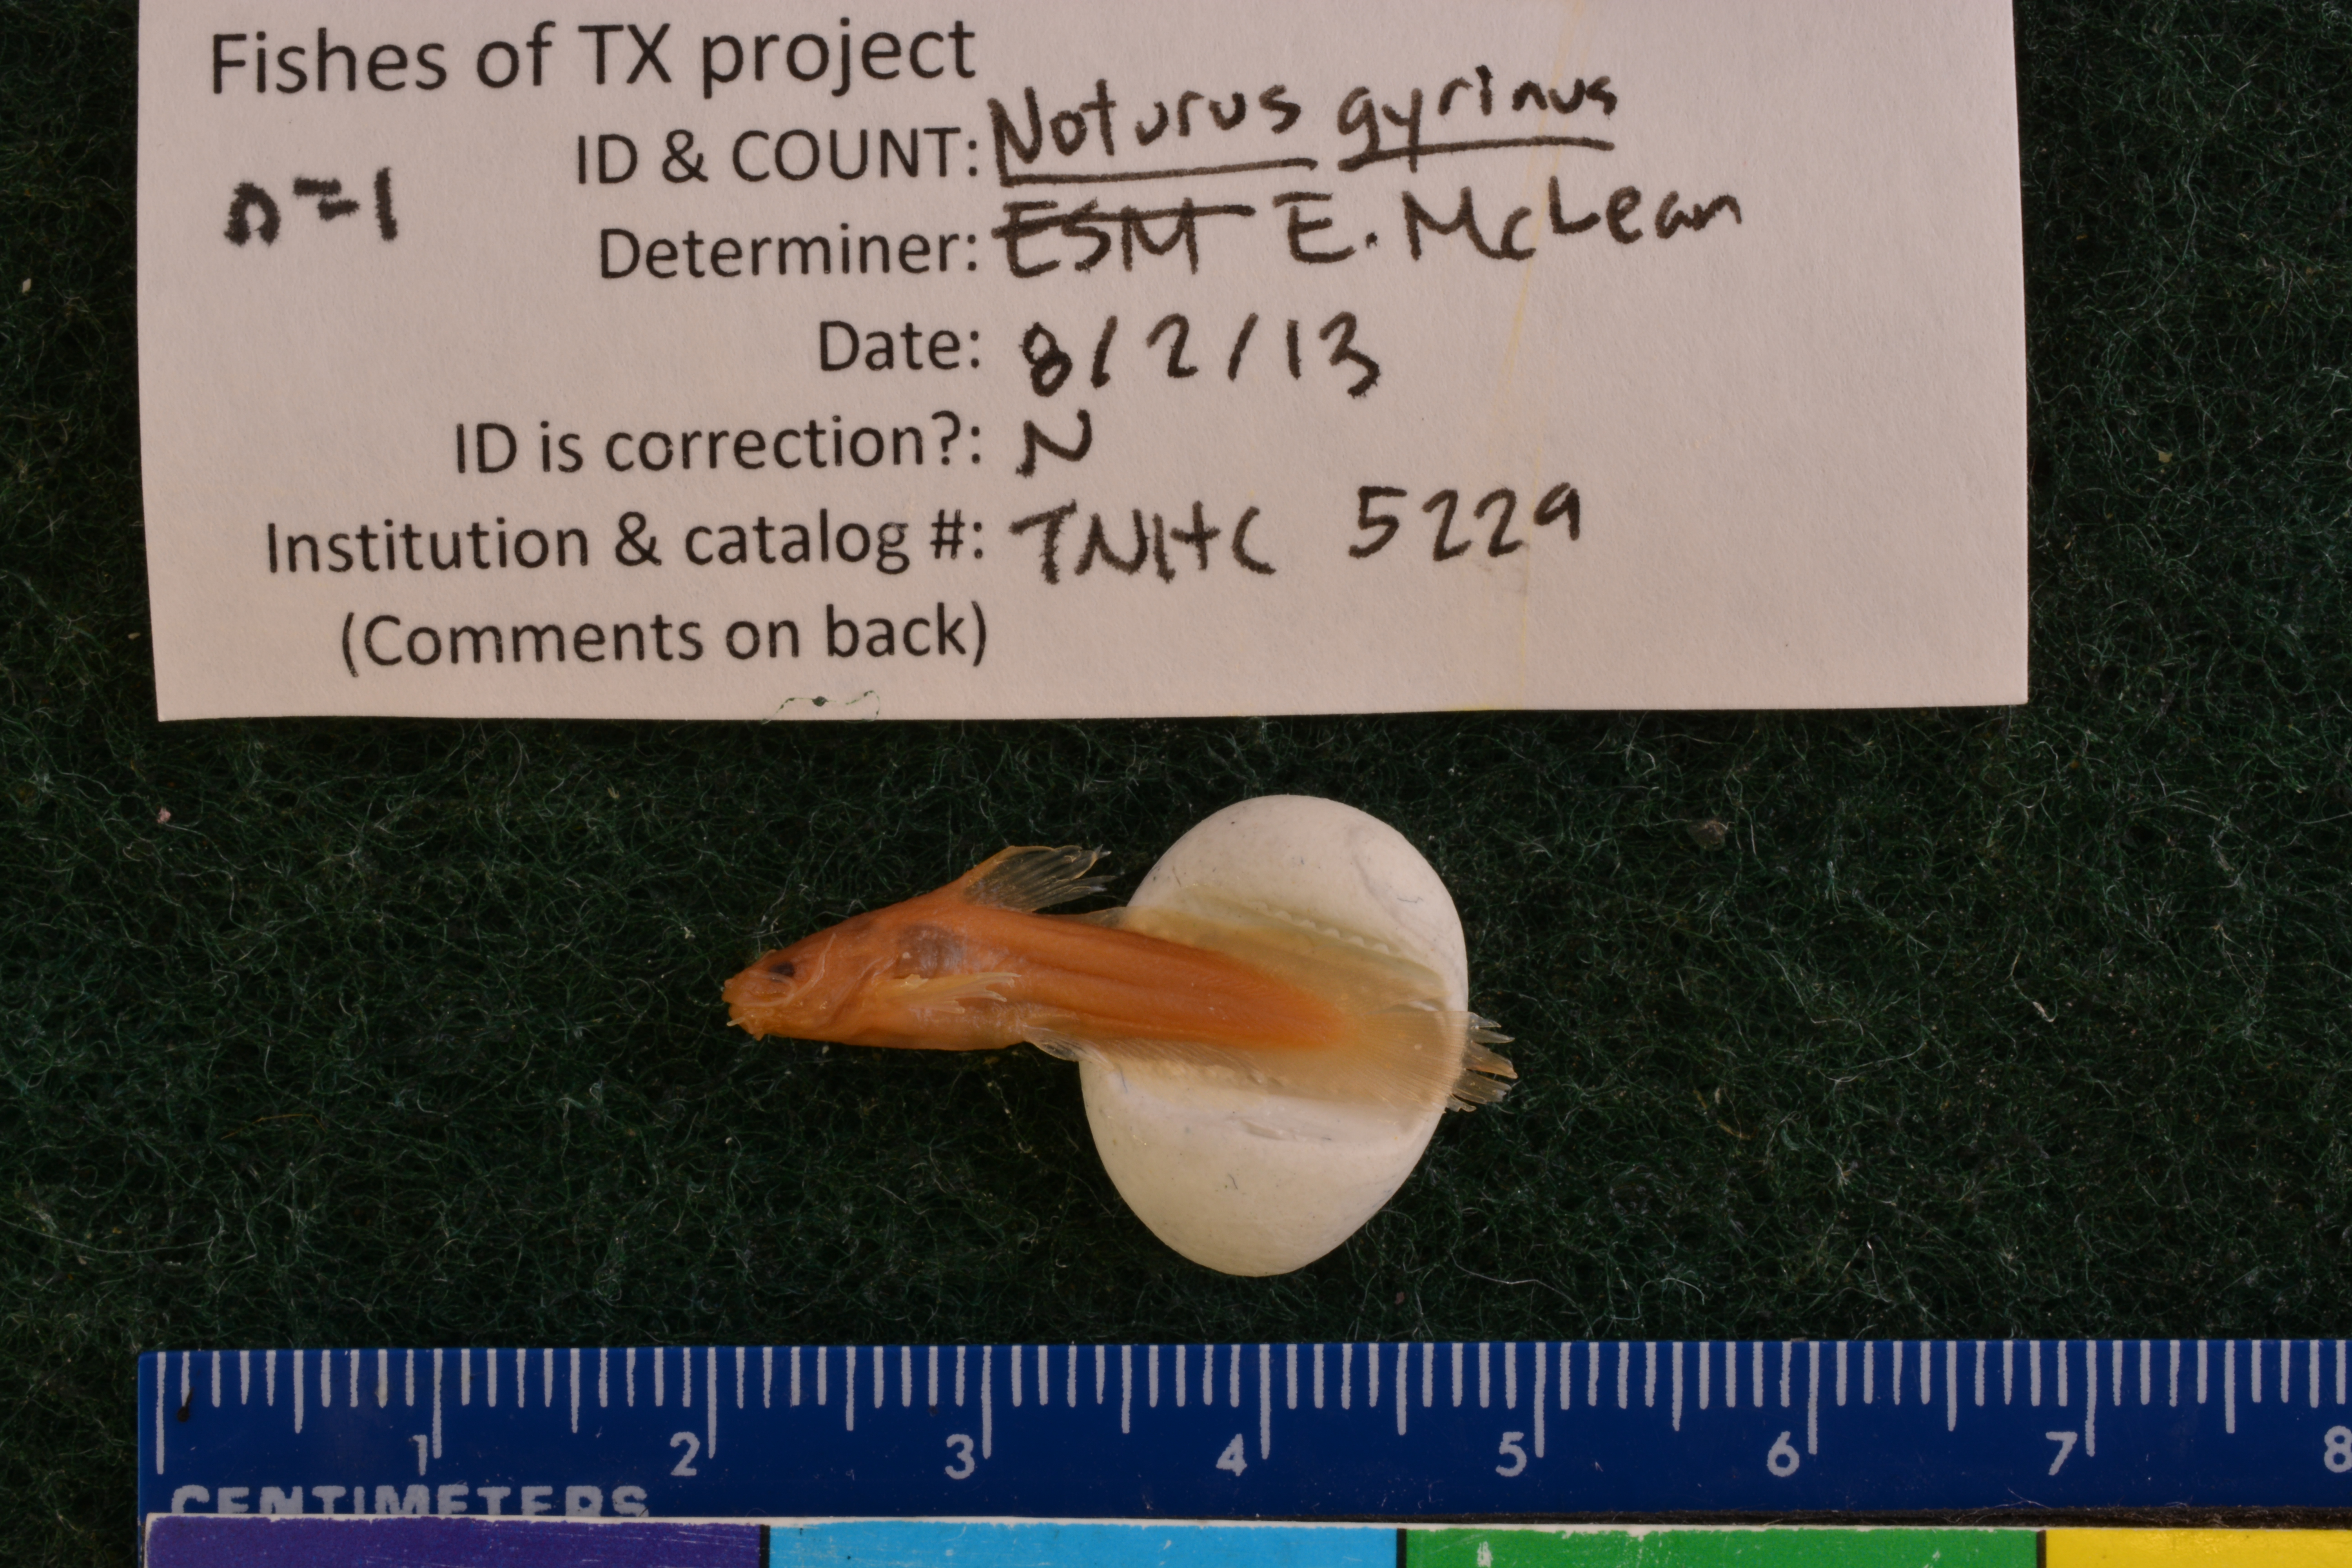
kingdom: Animalia
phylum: Chordata
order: Siluriformes
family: Ictaluridae
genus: Noturus
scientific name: Noturus gyrinus
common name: Tadpole madtom
